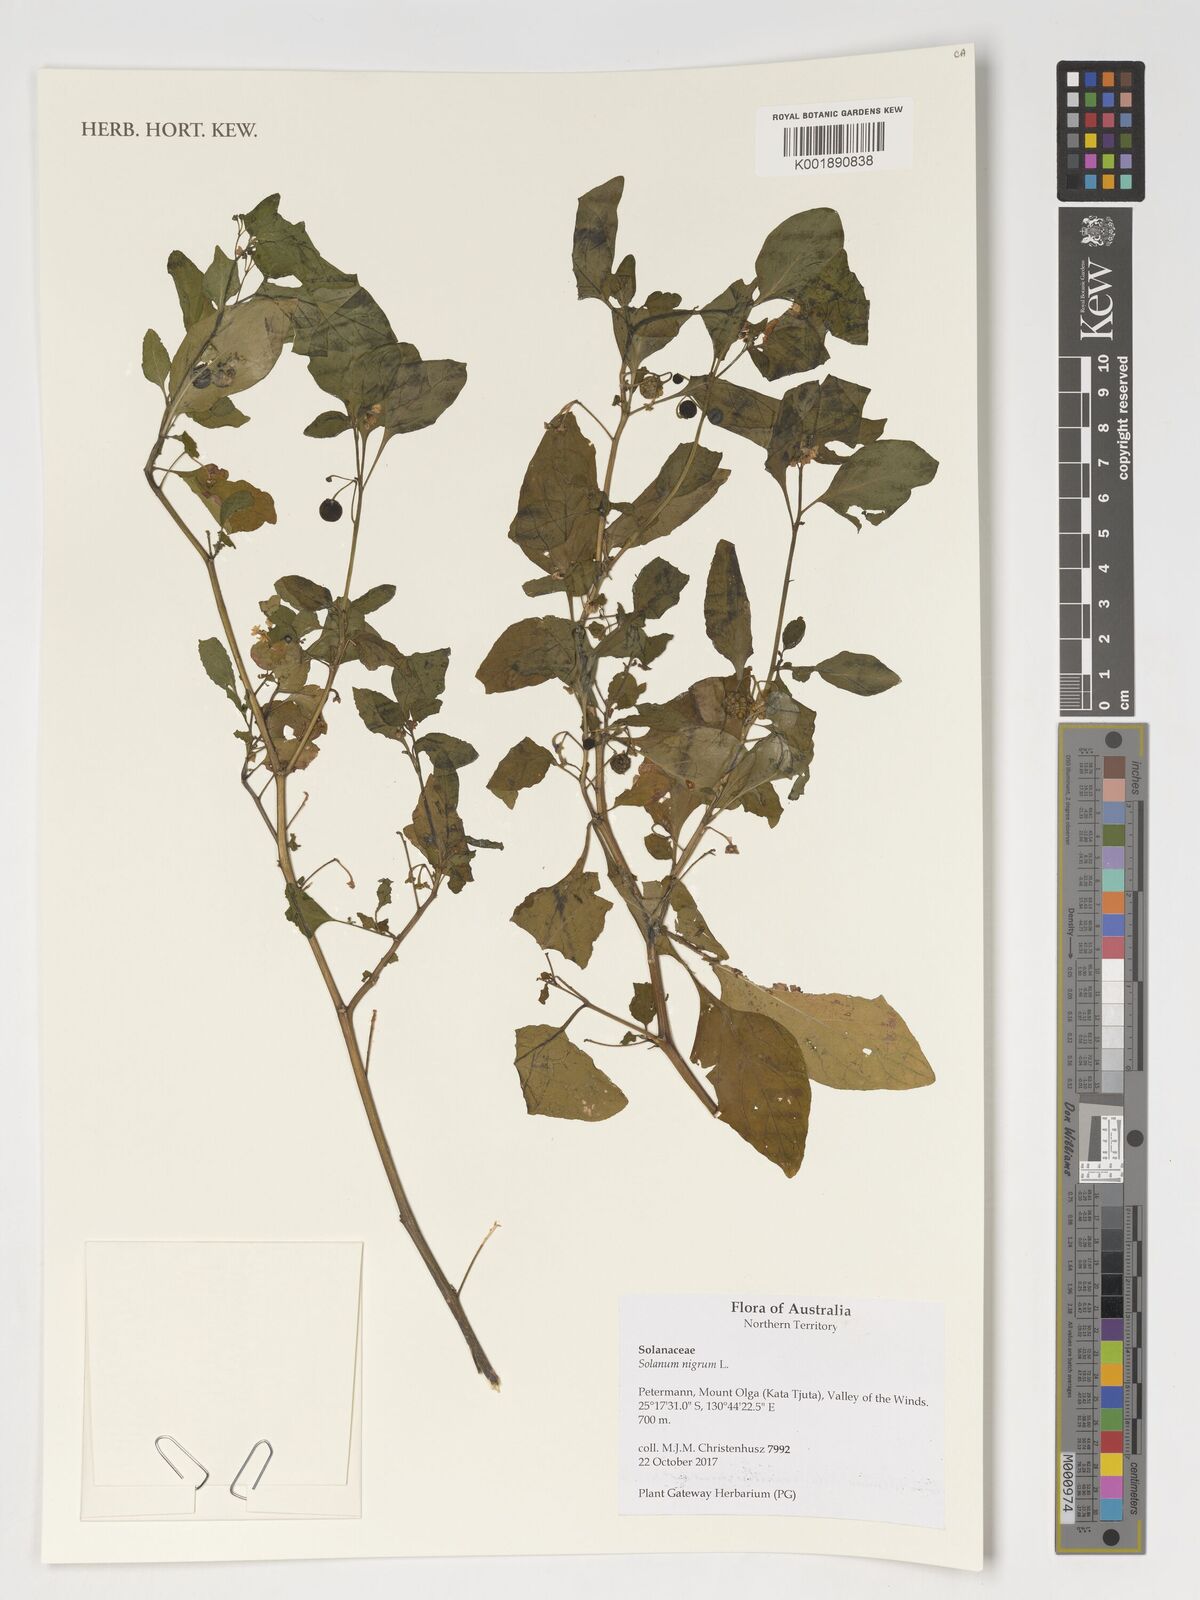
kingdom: Plantae
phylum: Tracheophyta
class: Magnoliopsida
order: Solanales
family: Solanaceae
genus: Solanum
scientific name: Solanum nigrum
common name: Black nightshade
